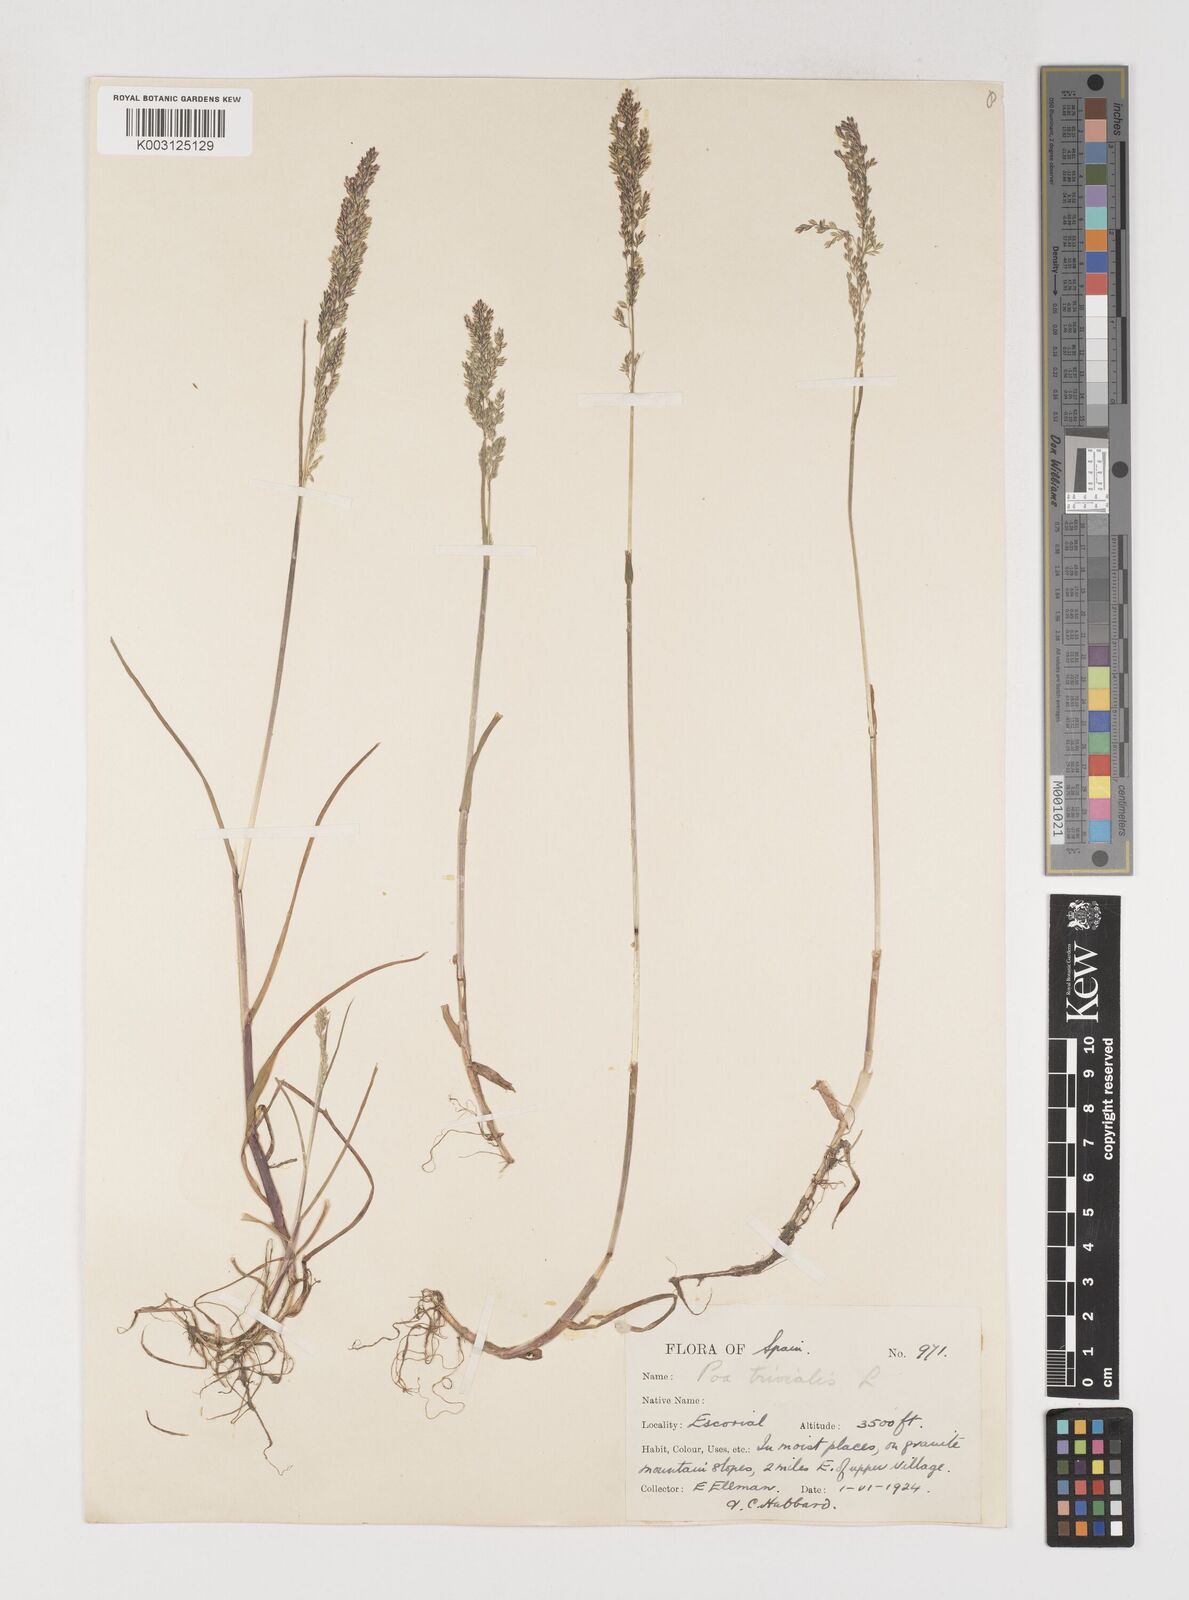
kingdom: Plantae
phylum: Tracheophyta
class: Liliopsida
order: Poales
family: Poaceae
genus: Poa
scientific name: Poa trivialis
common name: Rough bluegrass
